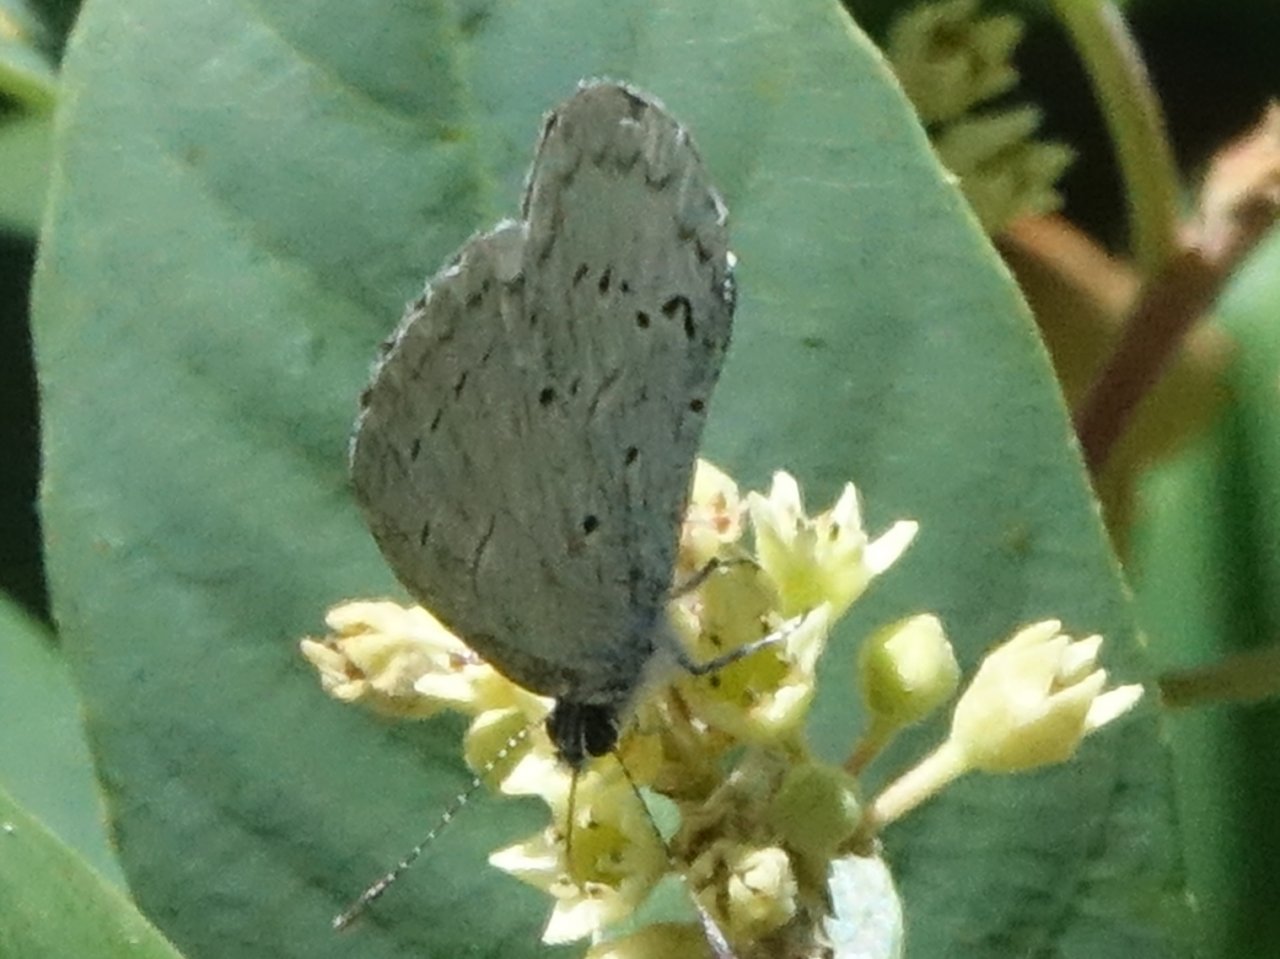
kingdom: Animalia
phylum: Arthropoda
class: Insecta
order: Lepidoptera
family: Lycaenidae
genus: Celastrina
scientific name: Celastrina ladon
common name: Echo Azure
